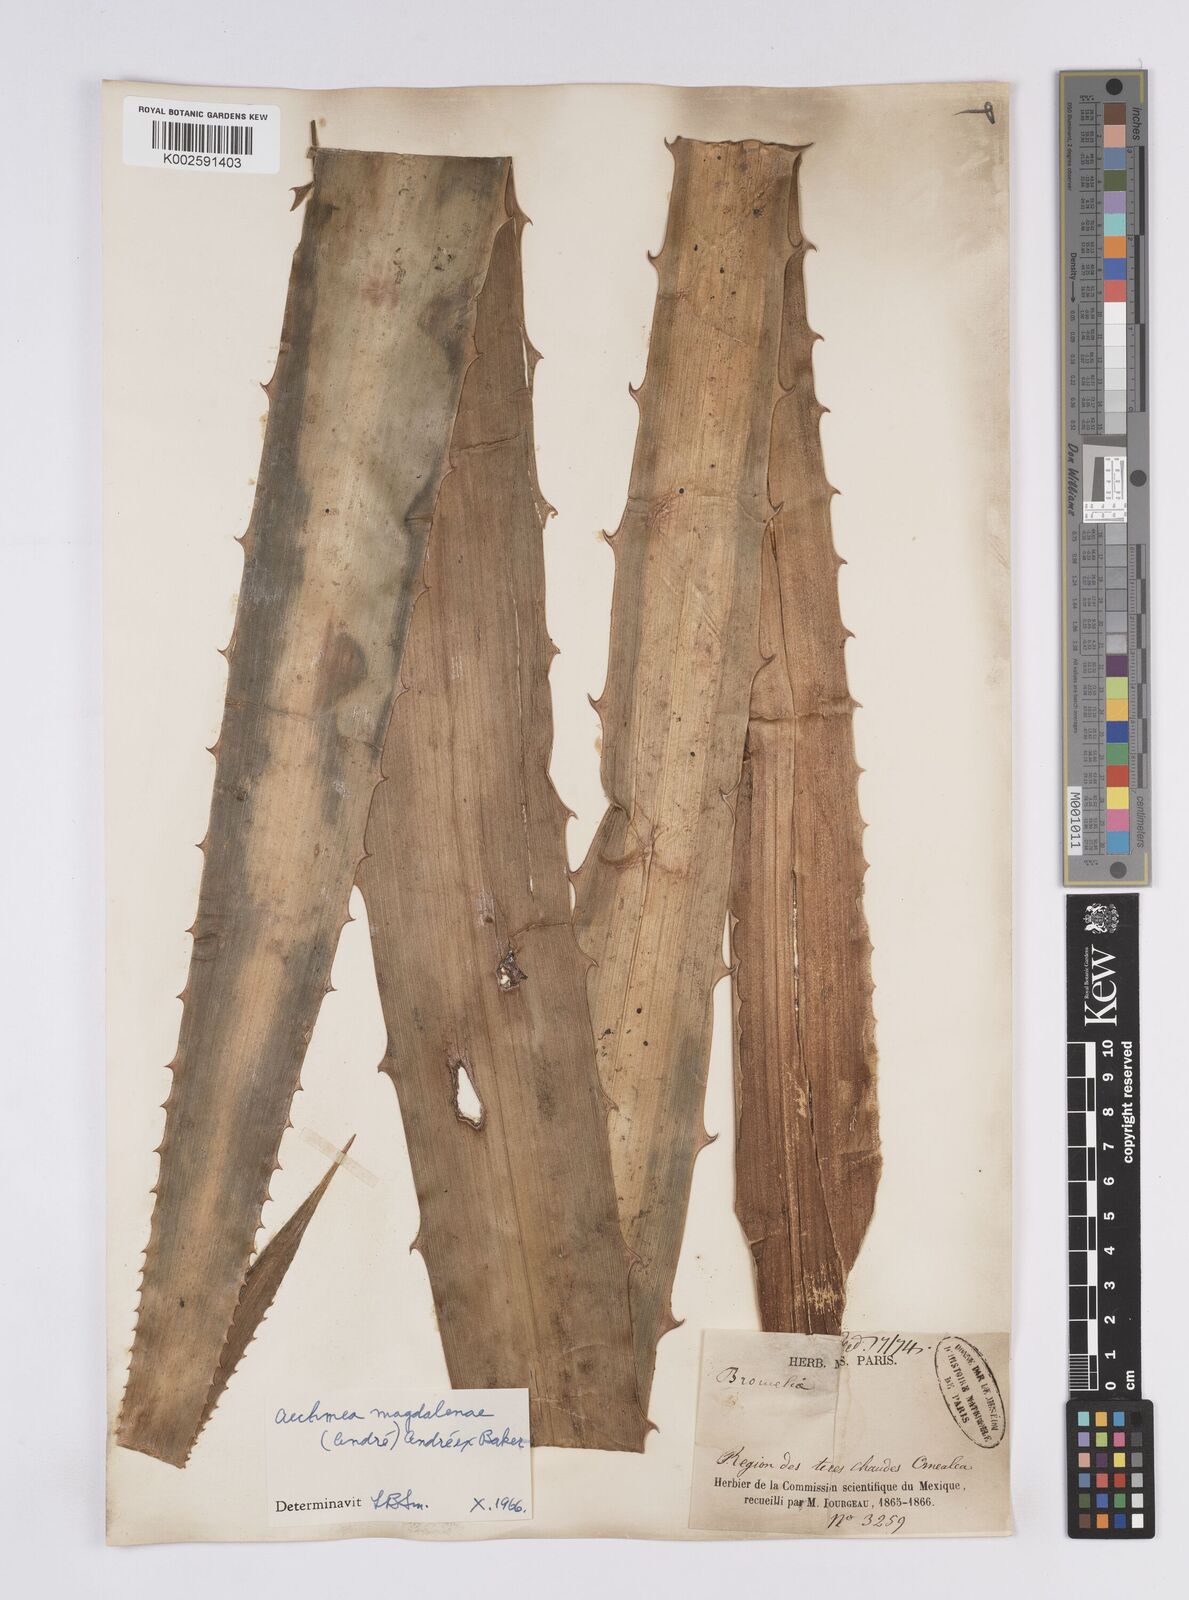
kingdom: Plantae
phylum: Tracheophyta
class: Liliopsida
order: Poales
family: Bromeliaceae
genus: Aechmea
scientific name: Aechmea magdalenae
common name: Arghan
